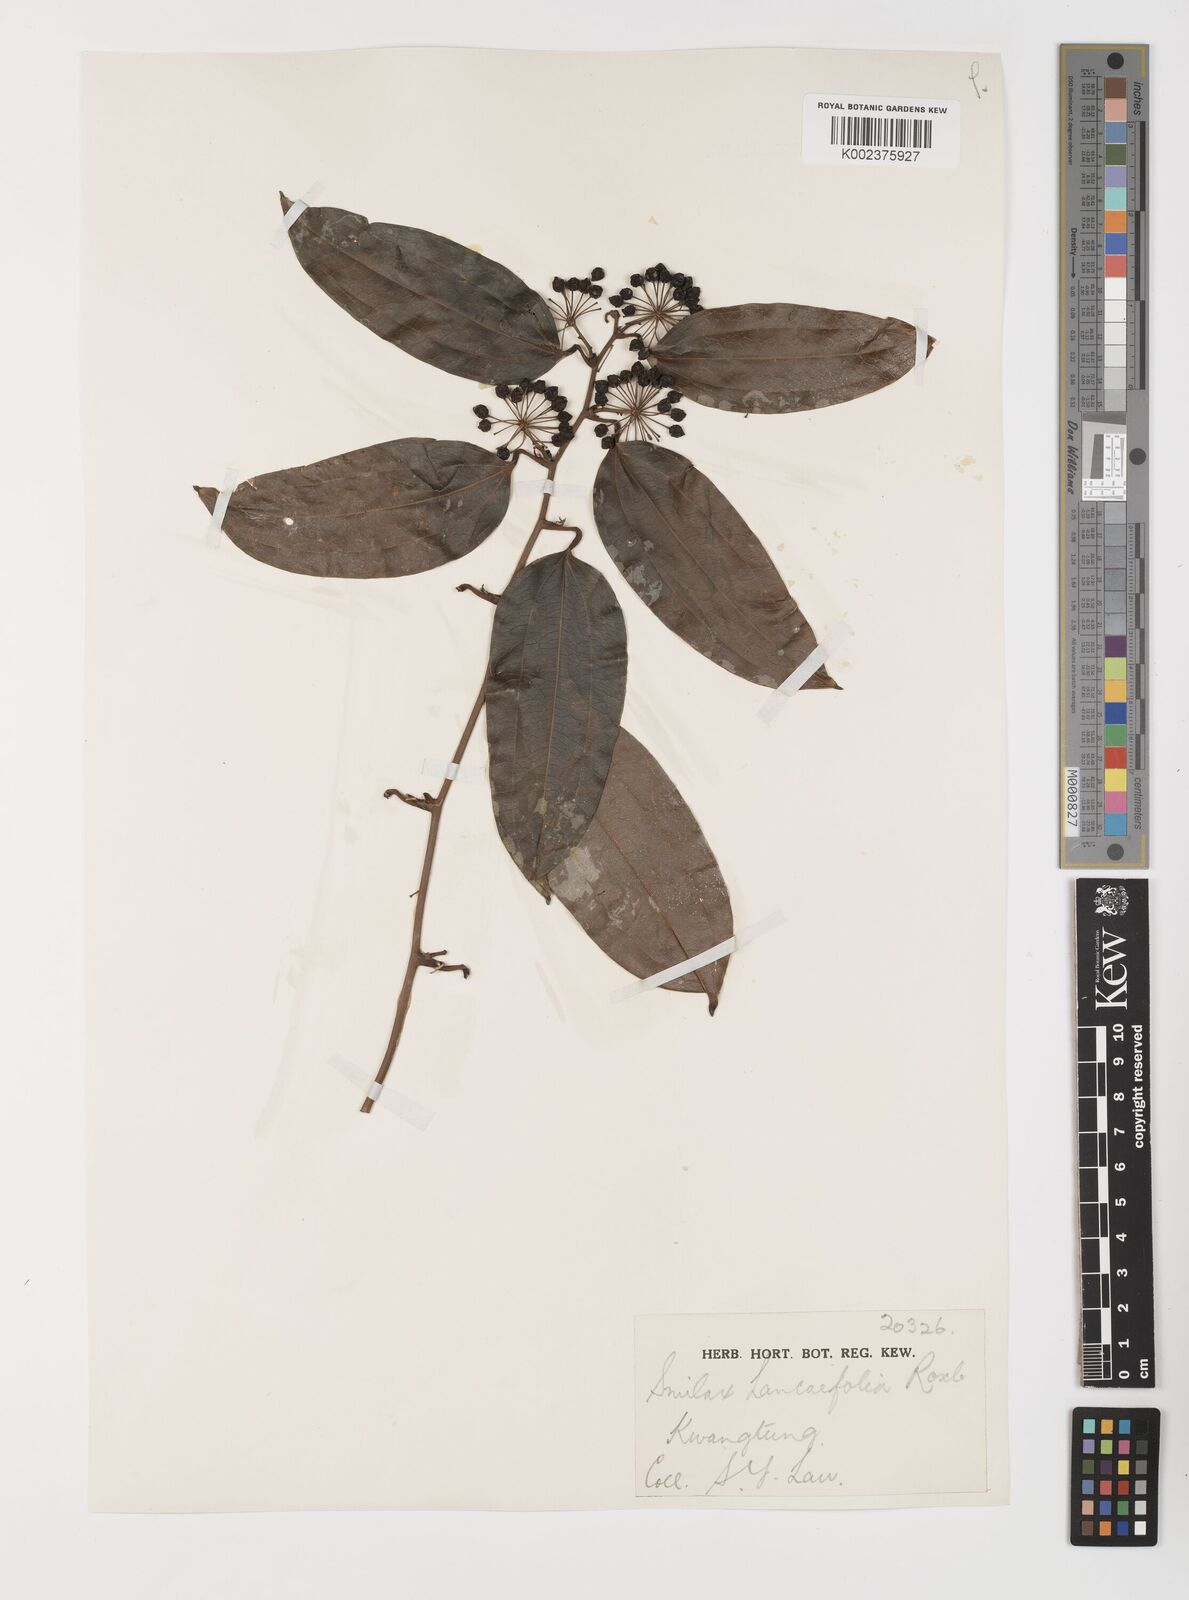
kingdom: Plantae
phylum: Tracheophyta
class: Liliopsida
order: Liliales
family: Smilacaceae
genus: Smilax
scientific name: Smilax lanceifolia
